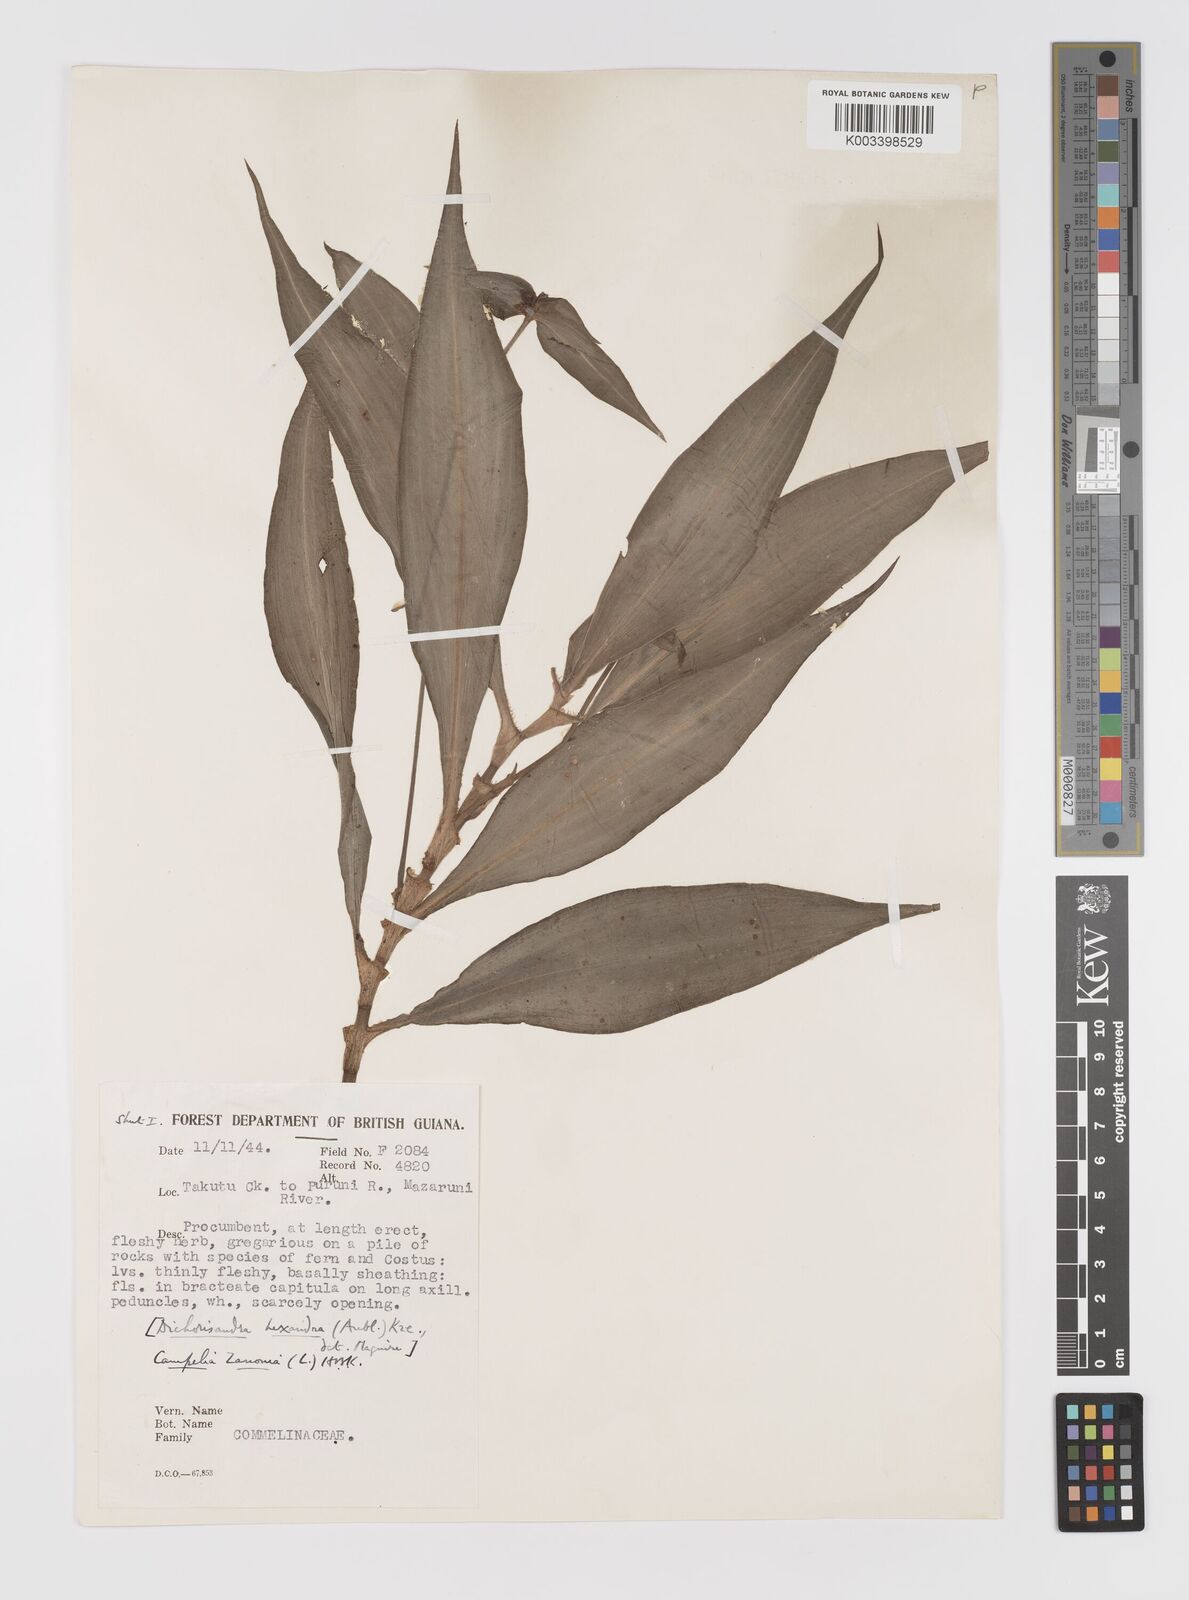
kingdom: Plantae
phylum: Tracheophyta
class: Liliopsida
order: Commelinales
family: Commelinaceae
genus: Tradescantia
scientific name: Tradescantia zanonia
